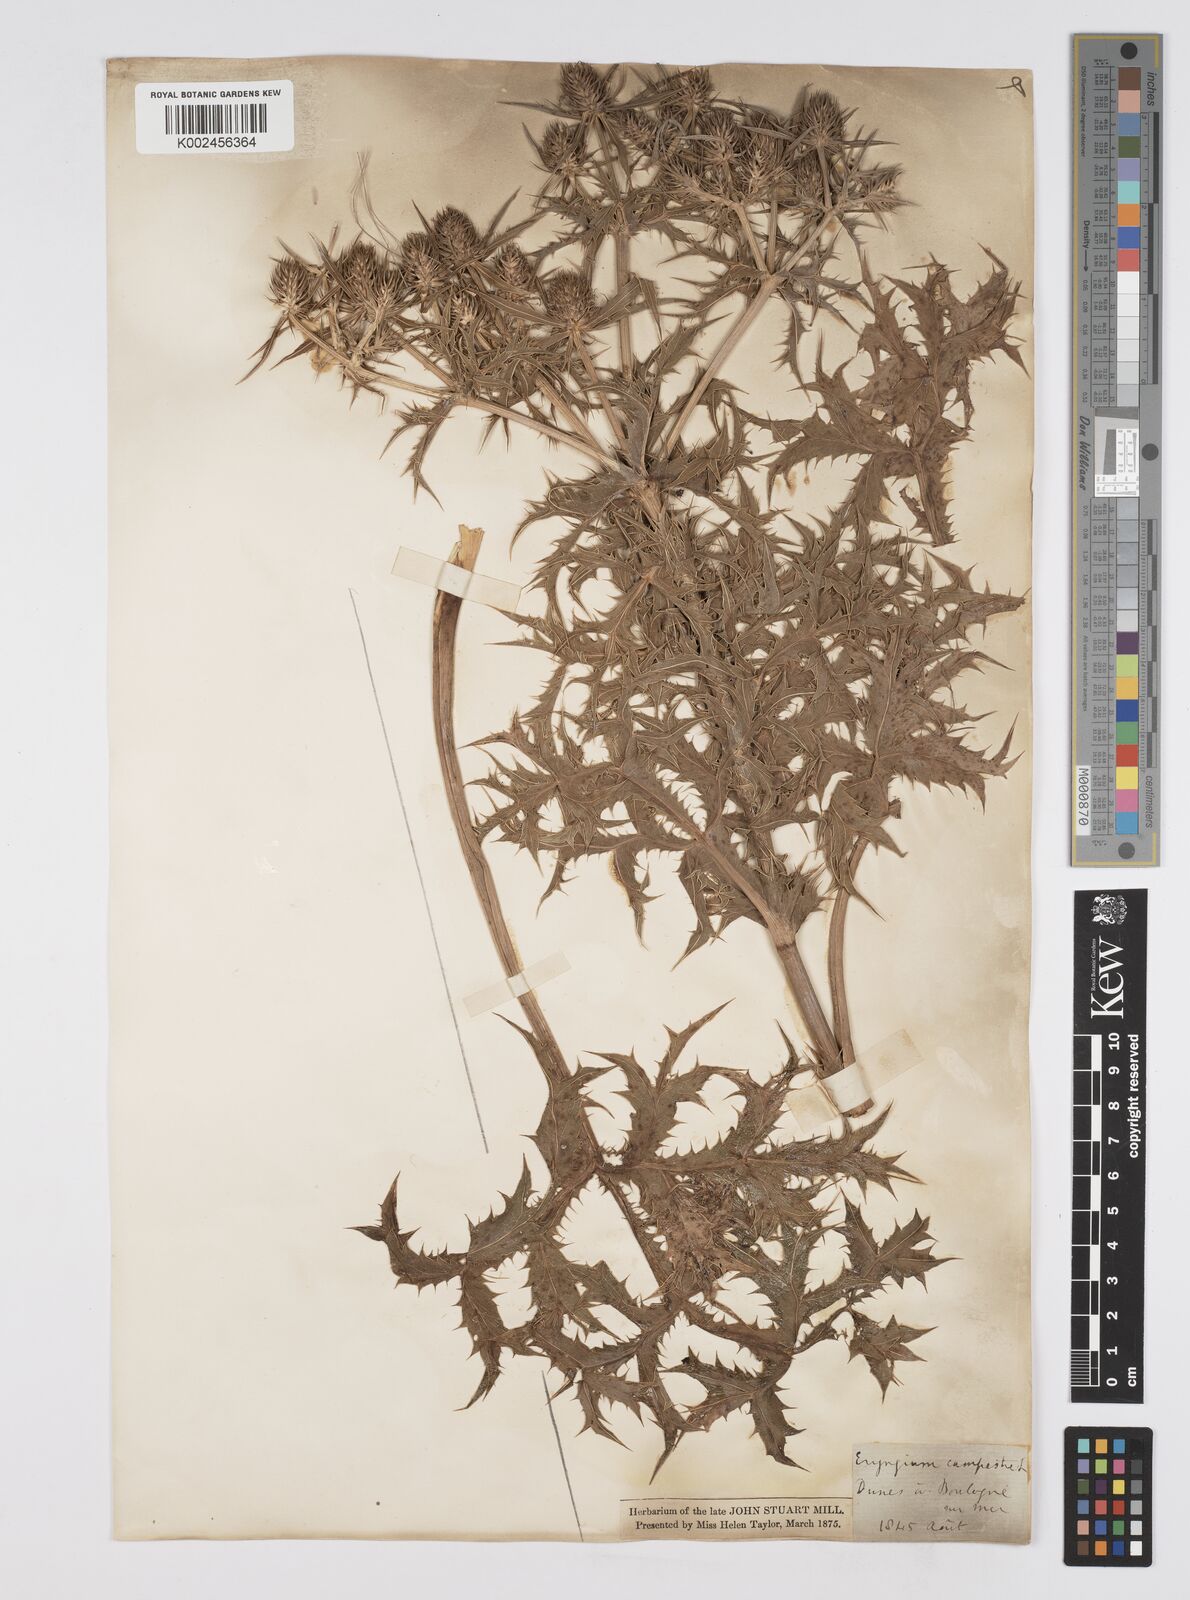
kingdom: Plantae
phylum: Tracheophyta
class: Magnoliopsida
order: Apiales
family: Apiaceae
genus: Eryngium
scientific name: Eryngium campestre
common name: Field eryngo
